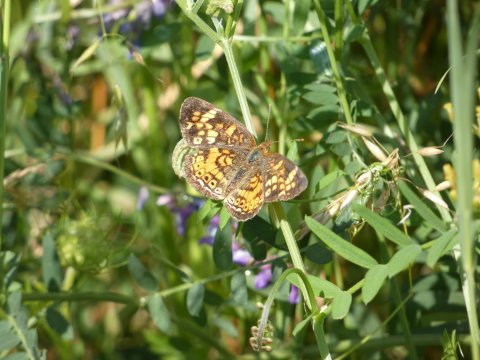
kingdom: Animalia
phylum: Arthropoda
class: Insecta
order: Lepidoptera
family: Nymphalidae
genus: Phyciodes
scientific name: Phyciodes tharos
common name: Pearl Crescent
